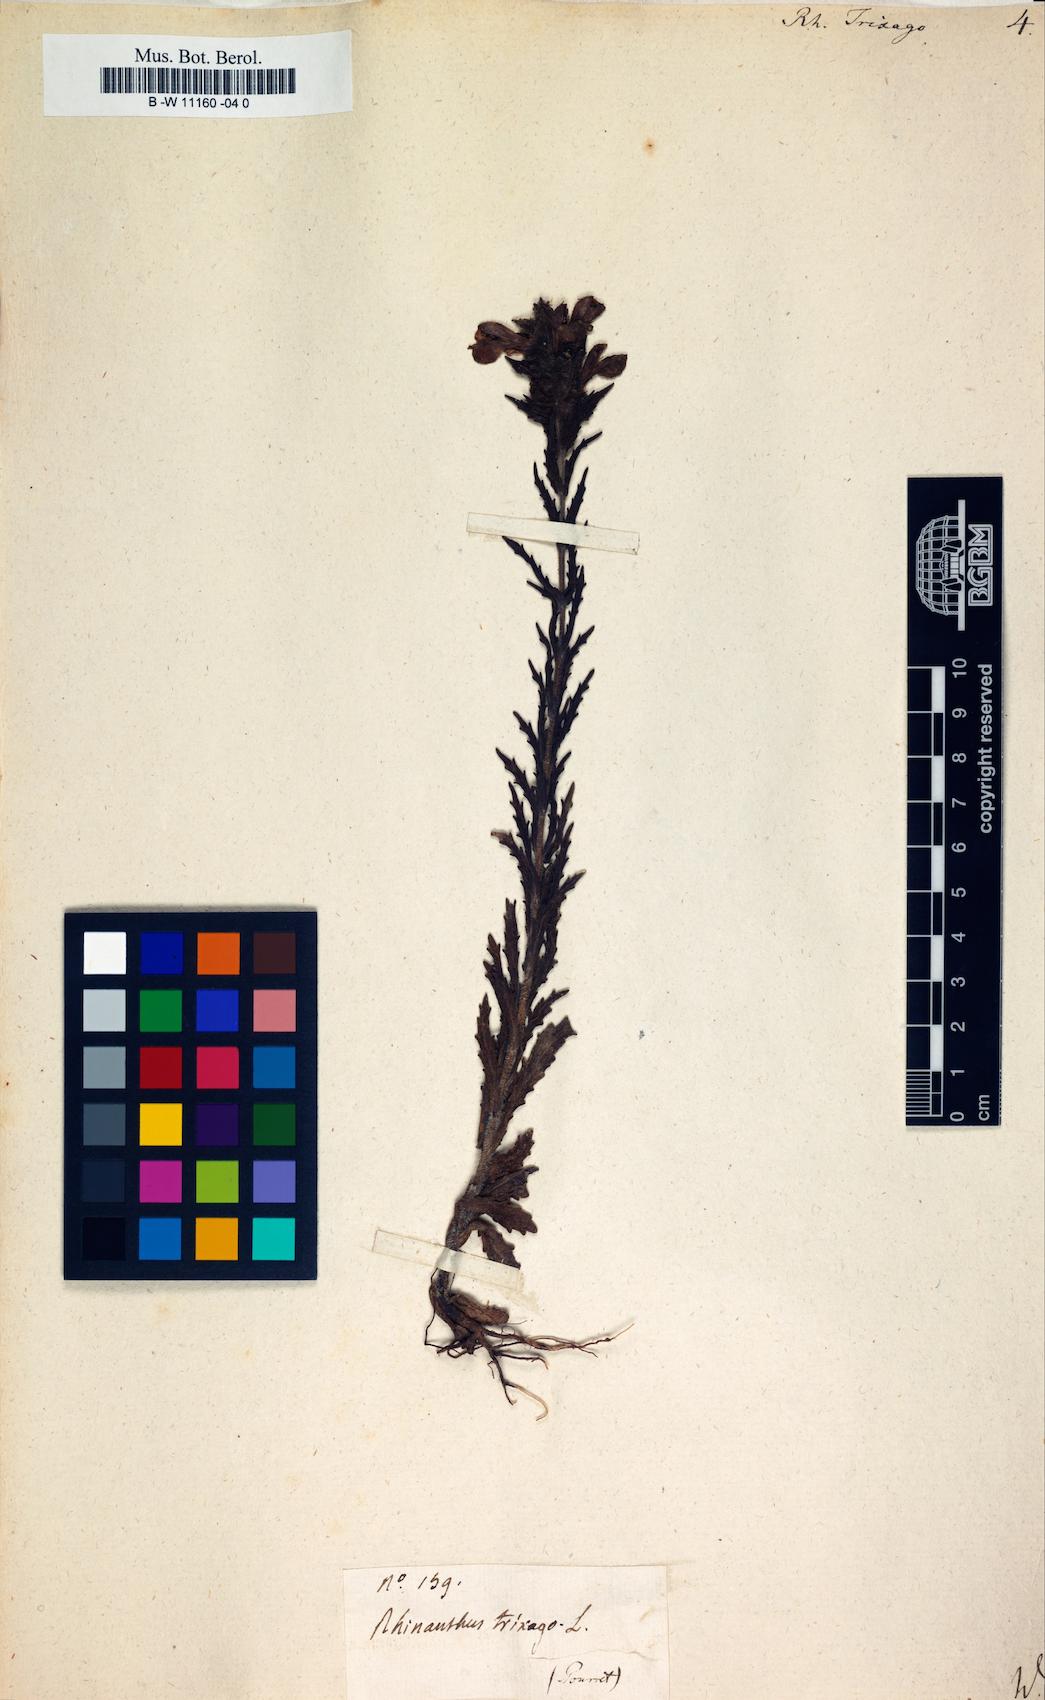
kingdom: Plantae
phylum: Tracheophyta
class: Magnoliopsida
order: Lamiales
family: Orobanchaceae
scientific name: Orobanchaceae
